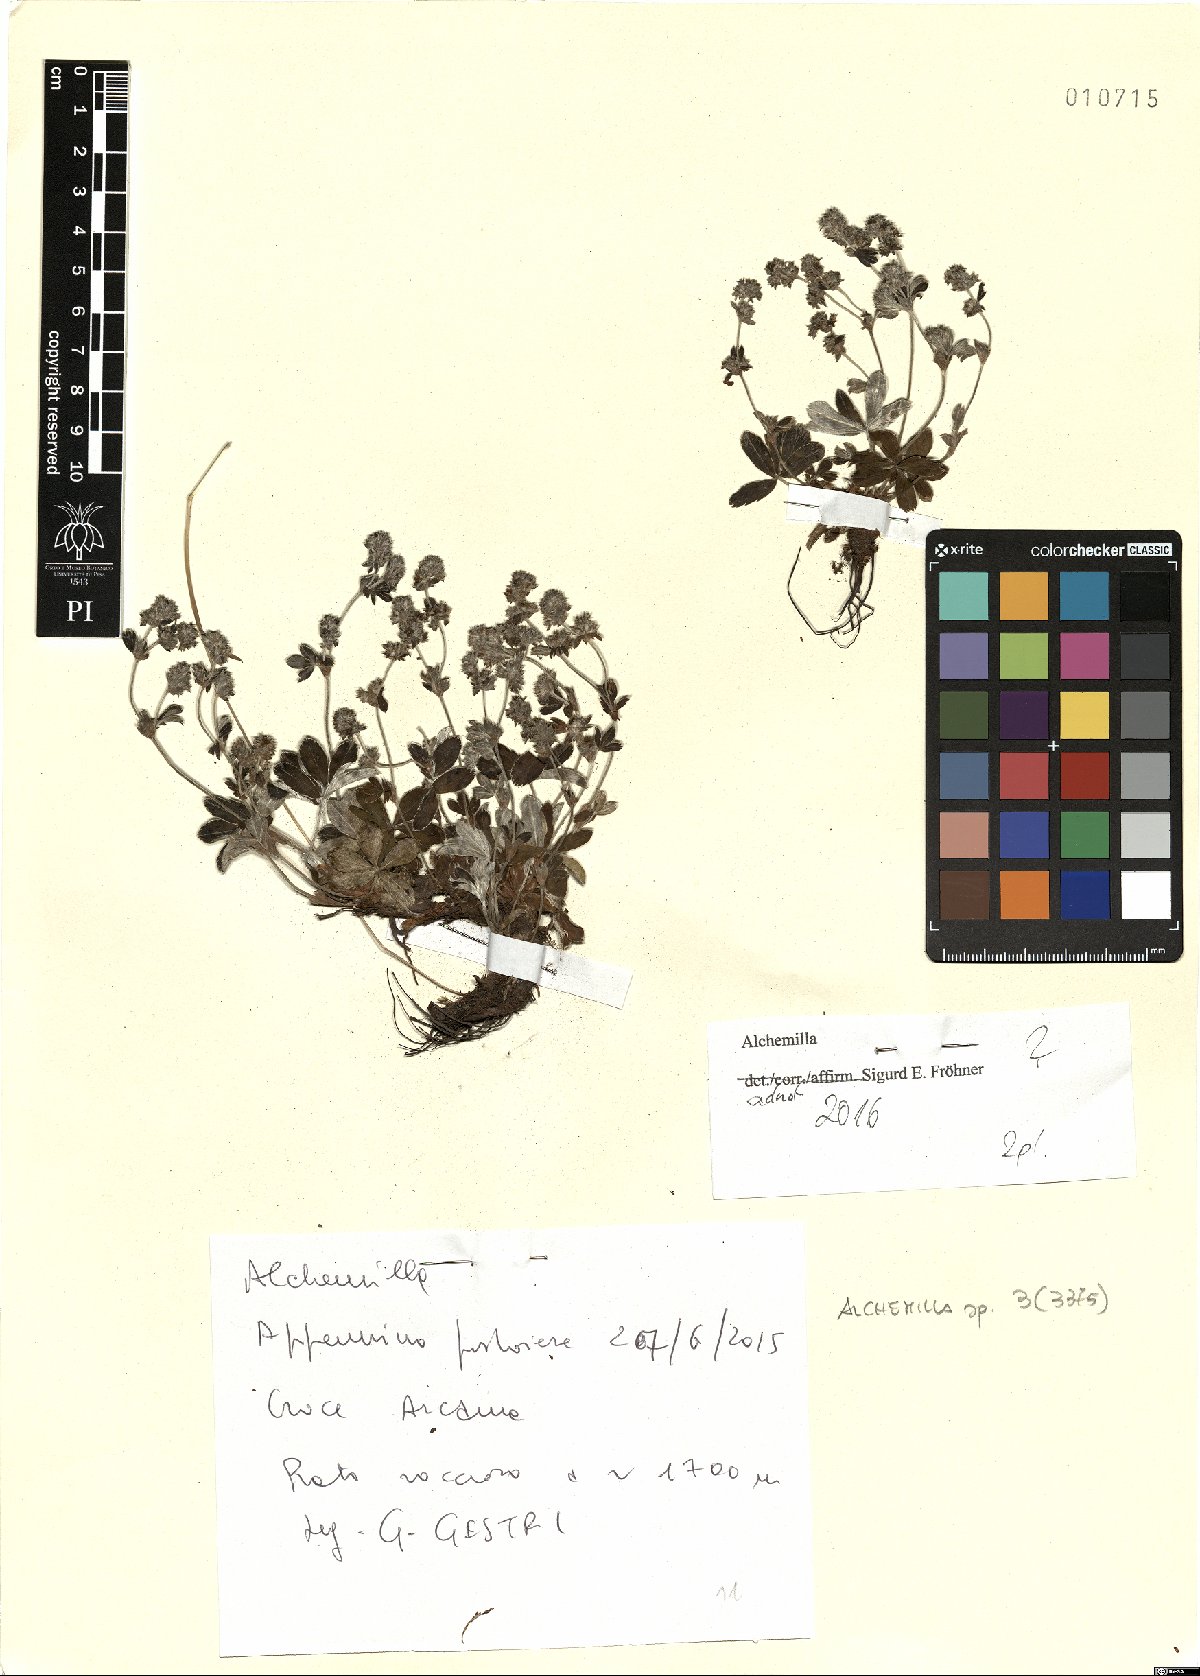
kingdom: Plantae
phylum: Tracheophyta
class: Magnoliopsida
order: Rosales
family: Rosaceae
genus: Alchemilla
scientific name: Alchemilla
